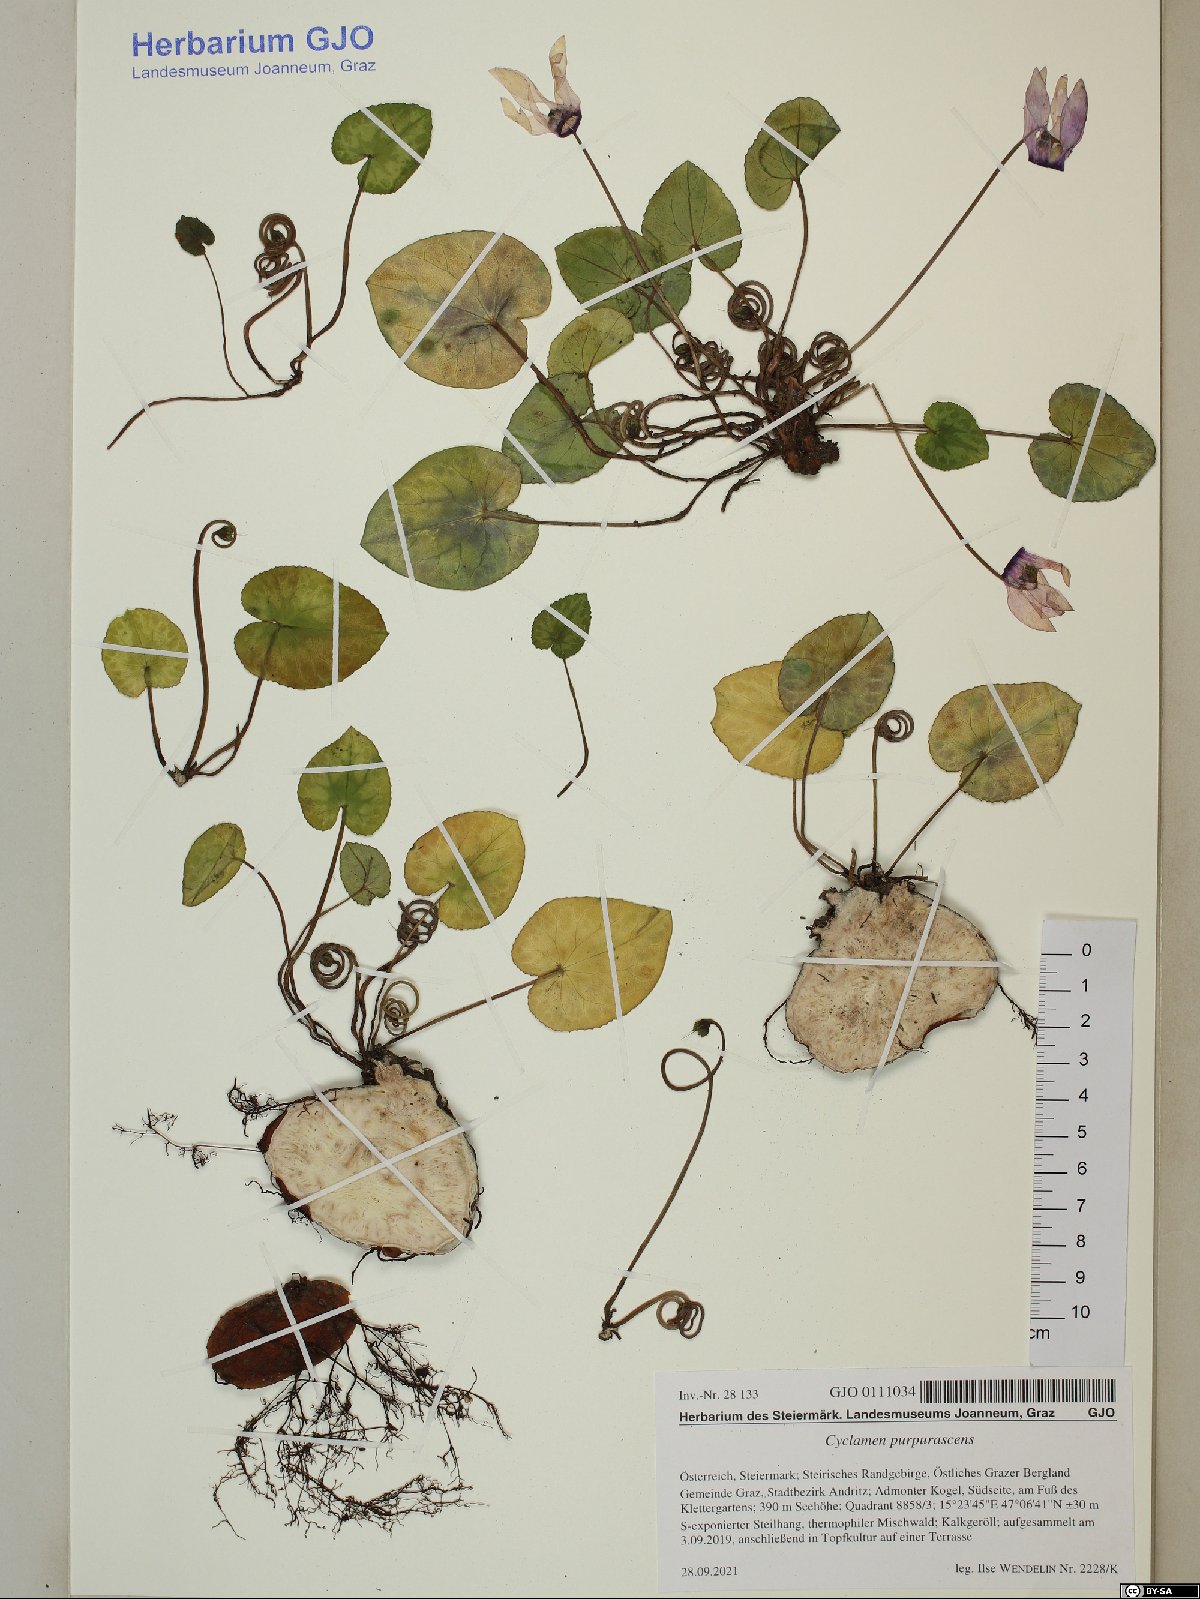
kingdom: Plantae
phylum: Tracheophyta
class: Magnoliopsida
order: Ericales
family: Primulaceae
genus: Cyclamen
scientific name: Cyclamen purpurascens
